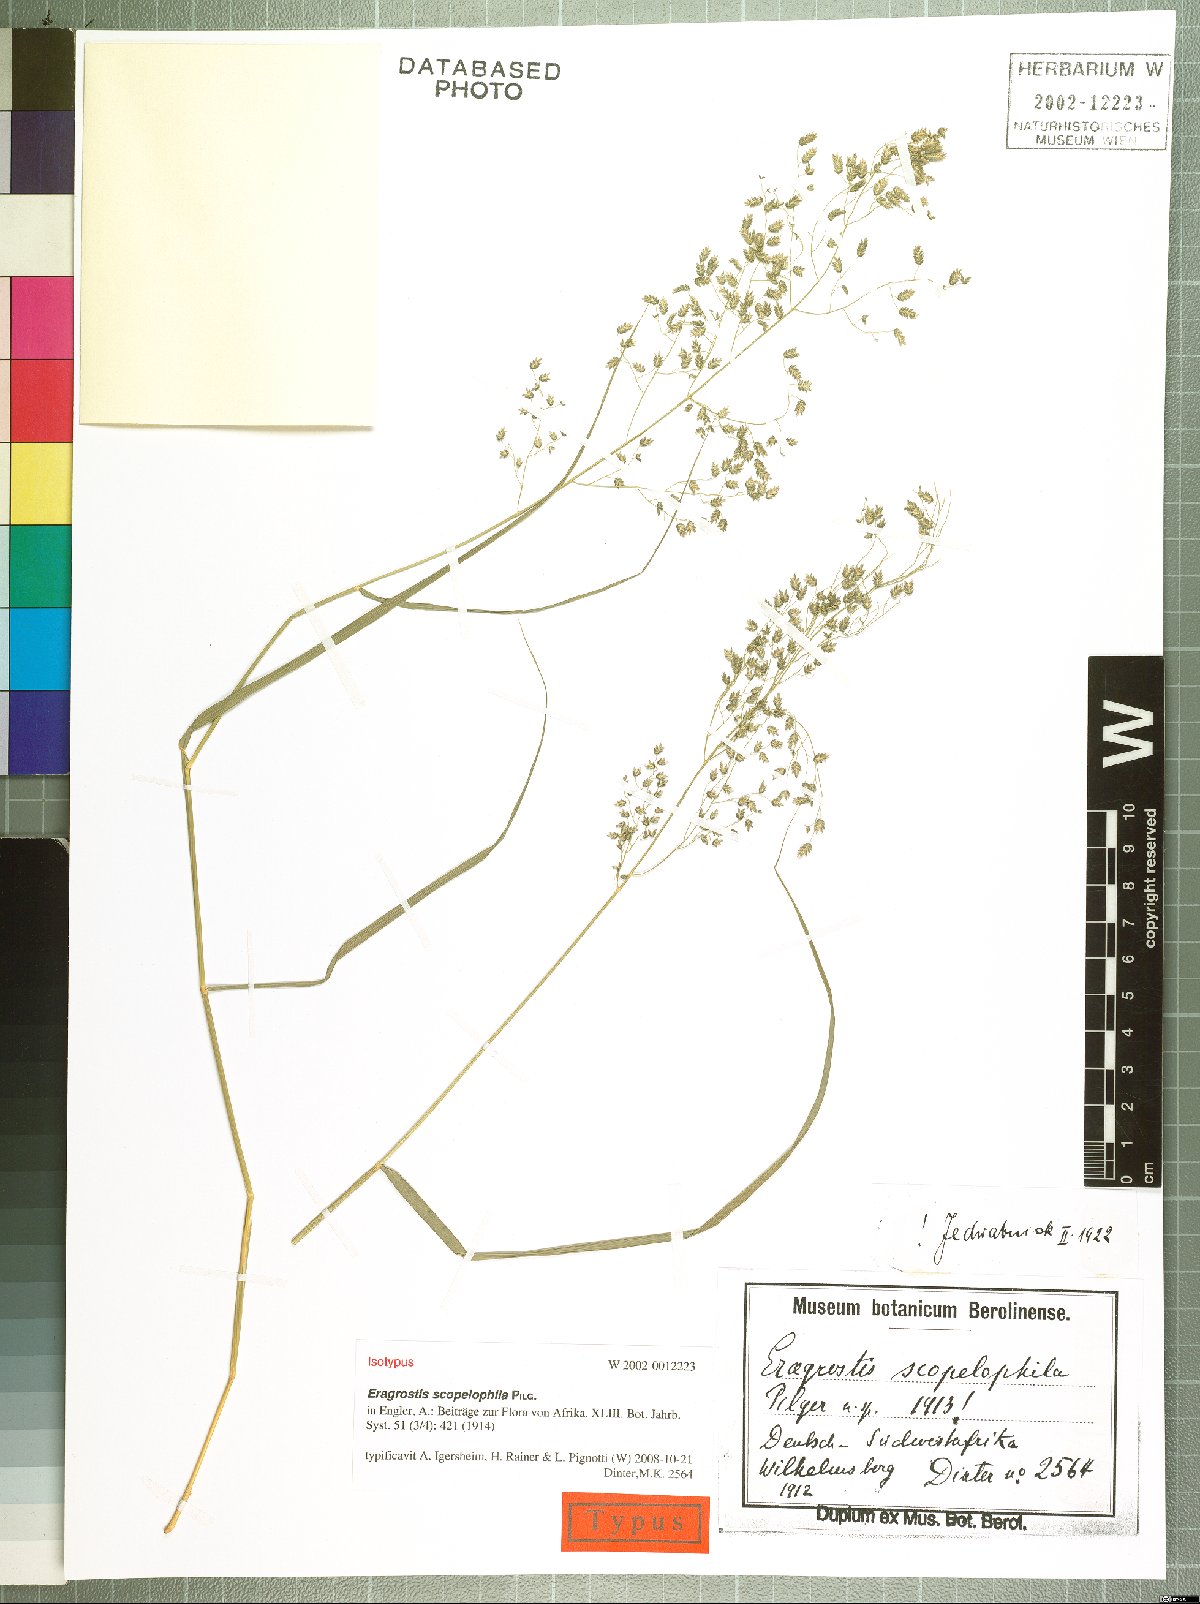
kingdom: Plantae
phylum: Tracheophyta
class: Liliopsida
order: Poales
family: Poaceae
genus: Eragrostis
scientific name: Eragrostis scopelophila
